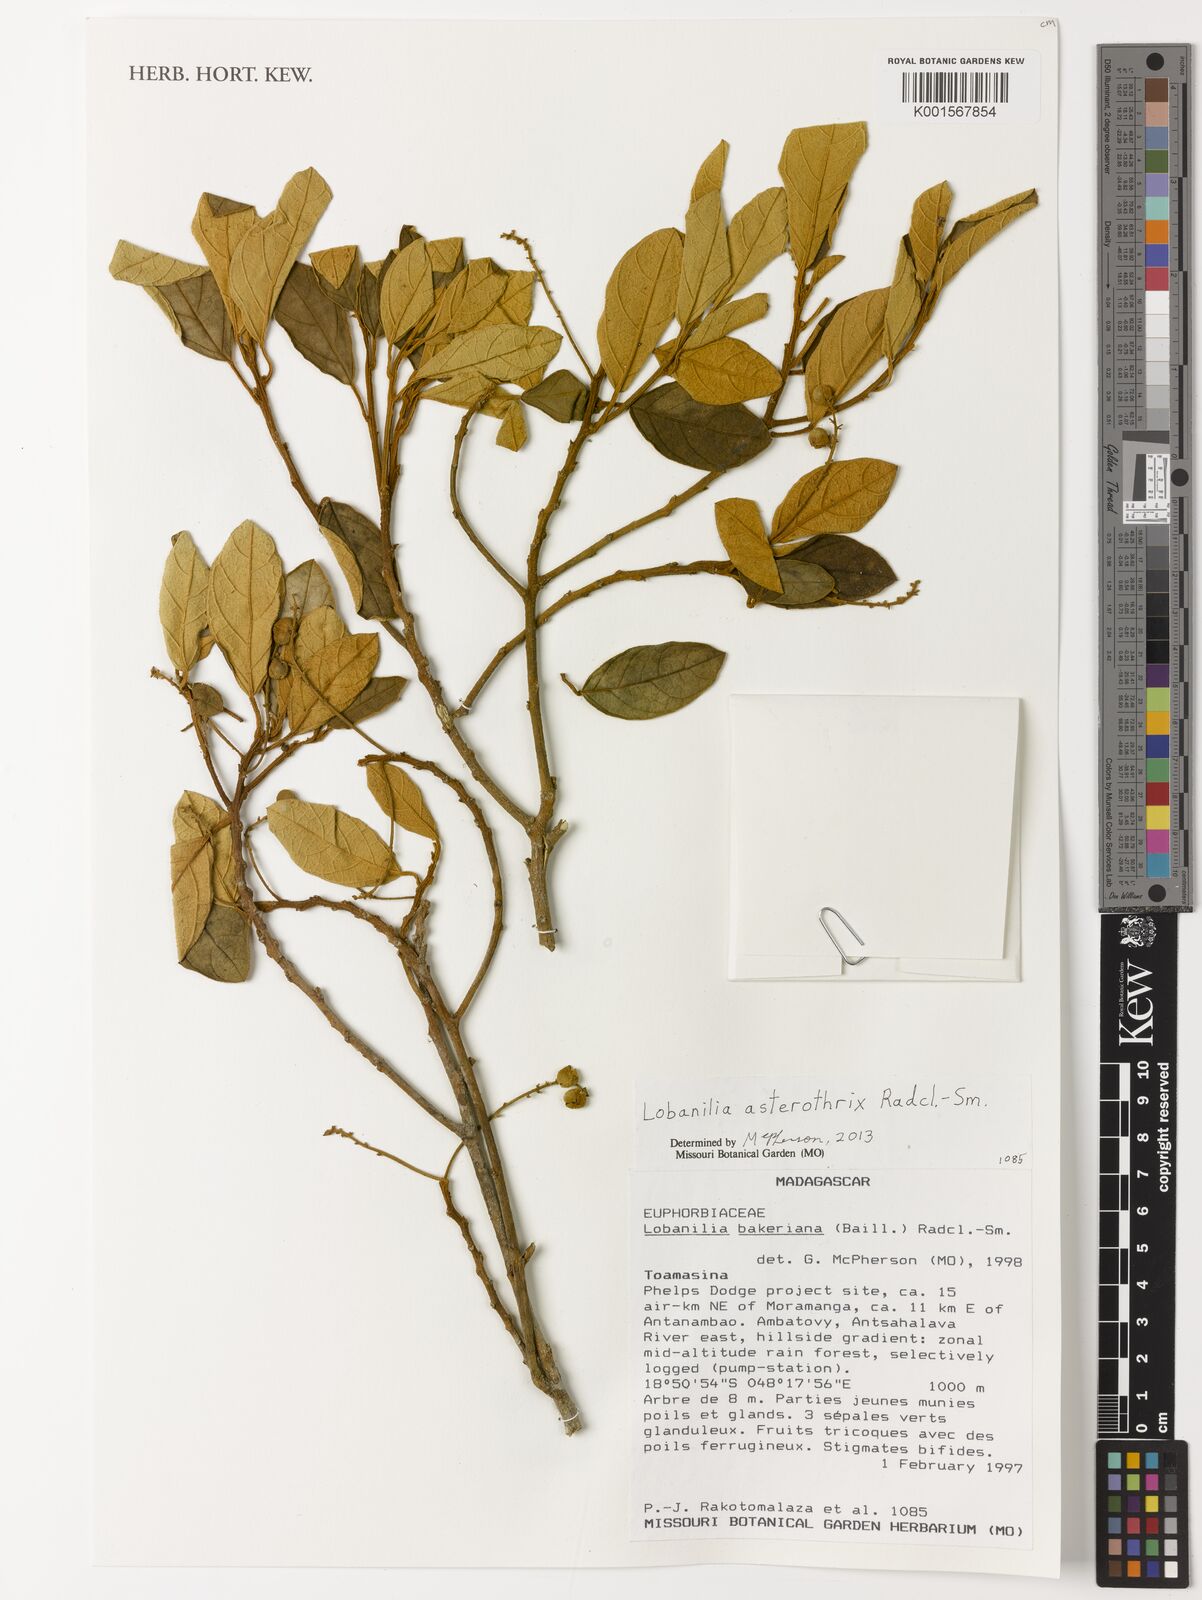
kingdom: Plantae
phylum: Tracheophyta
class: Magnoliopsida
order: Malpighiales
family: Euphorbiaceae
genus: Lobanilia
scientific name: Lobanilia asterothrix
